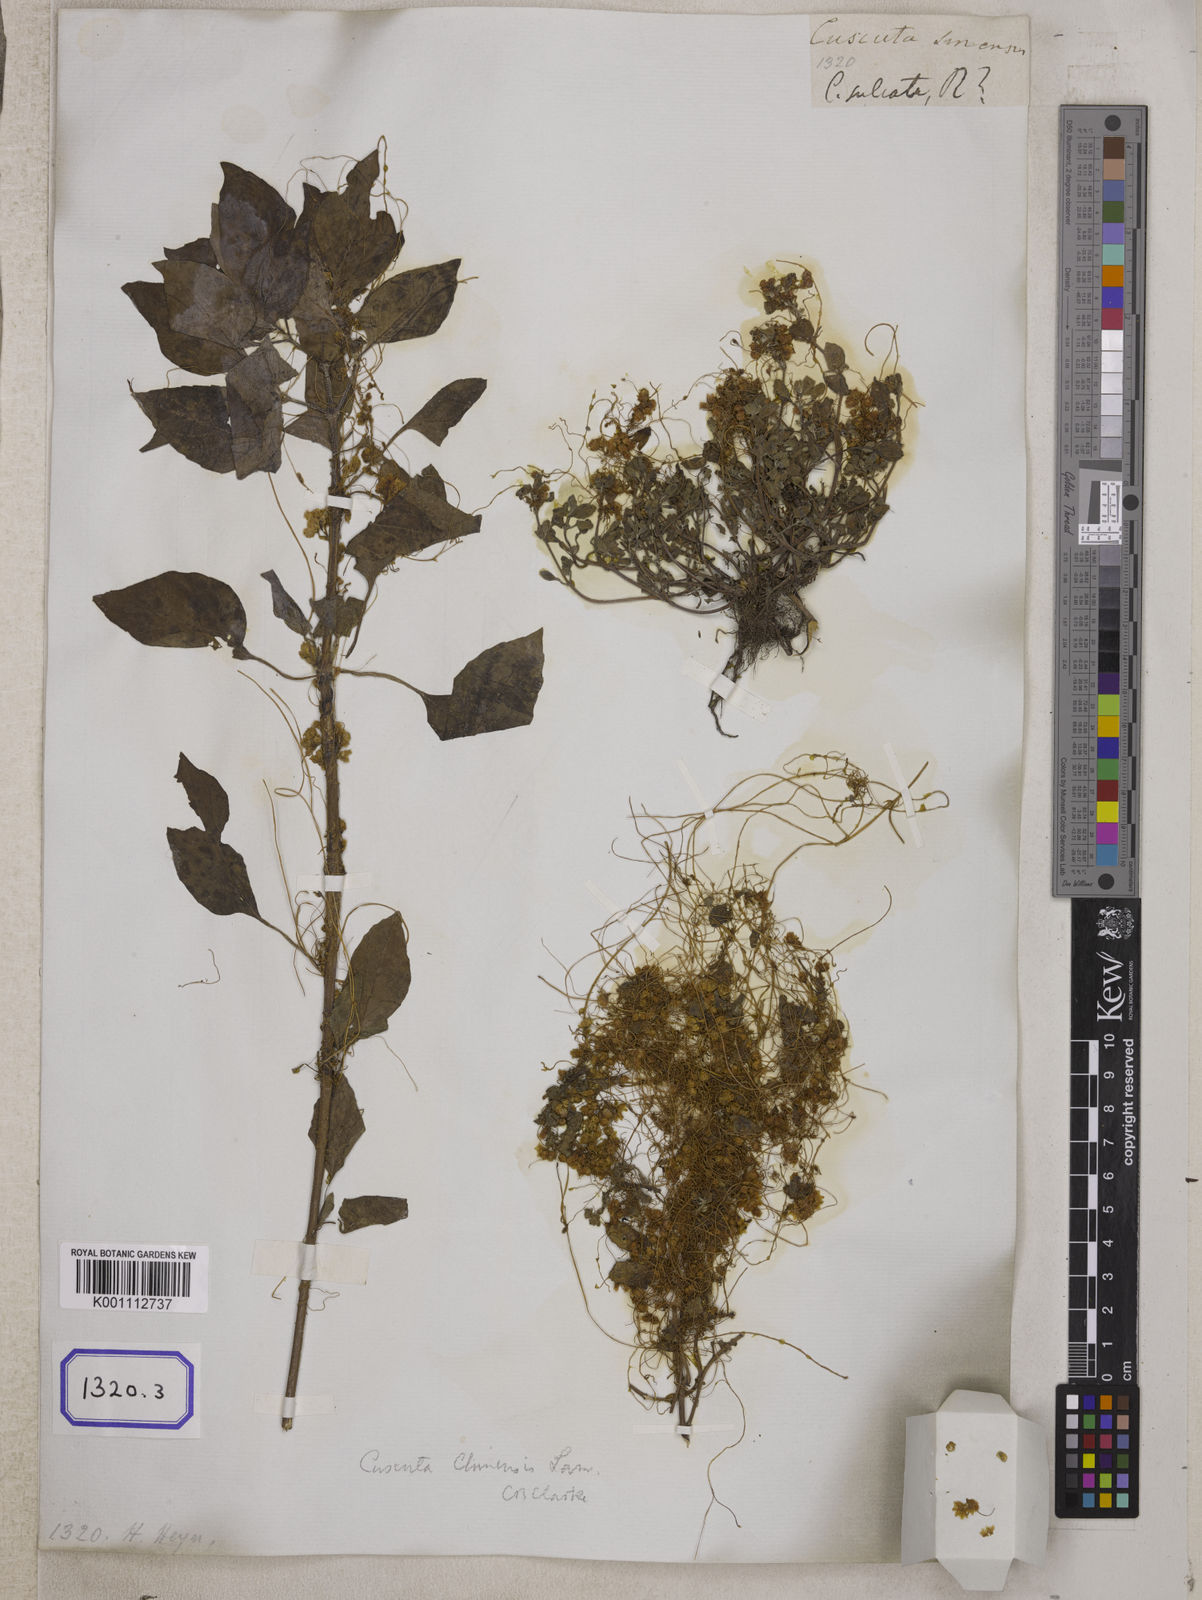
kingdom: Plantae
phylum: Tracheophyta
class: Magnoliopsida
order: Solanales
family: Convolvulaceae
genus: Cuscuta
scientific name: Cuscuta chinensis
